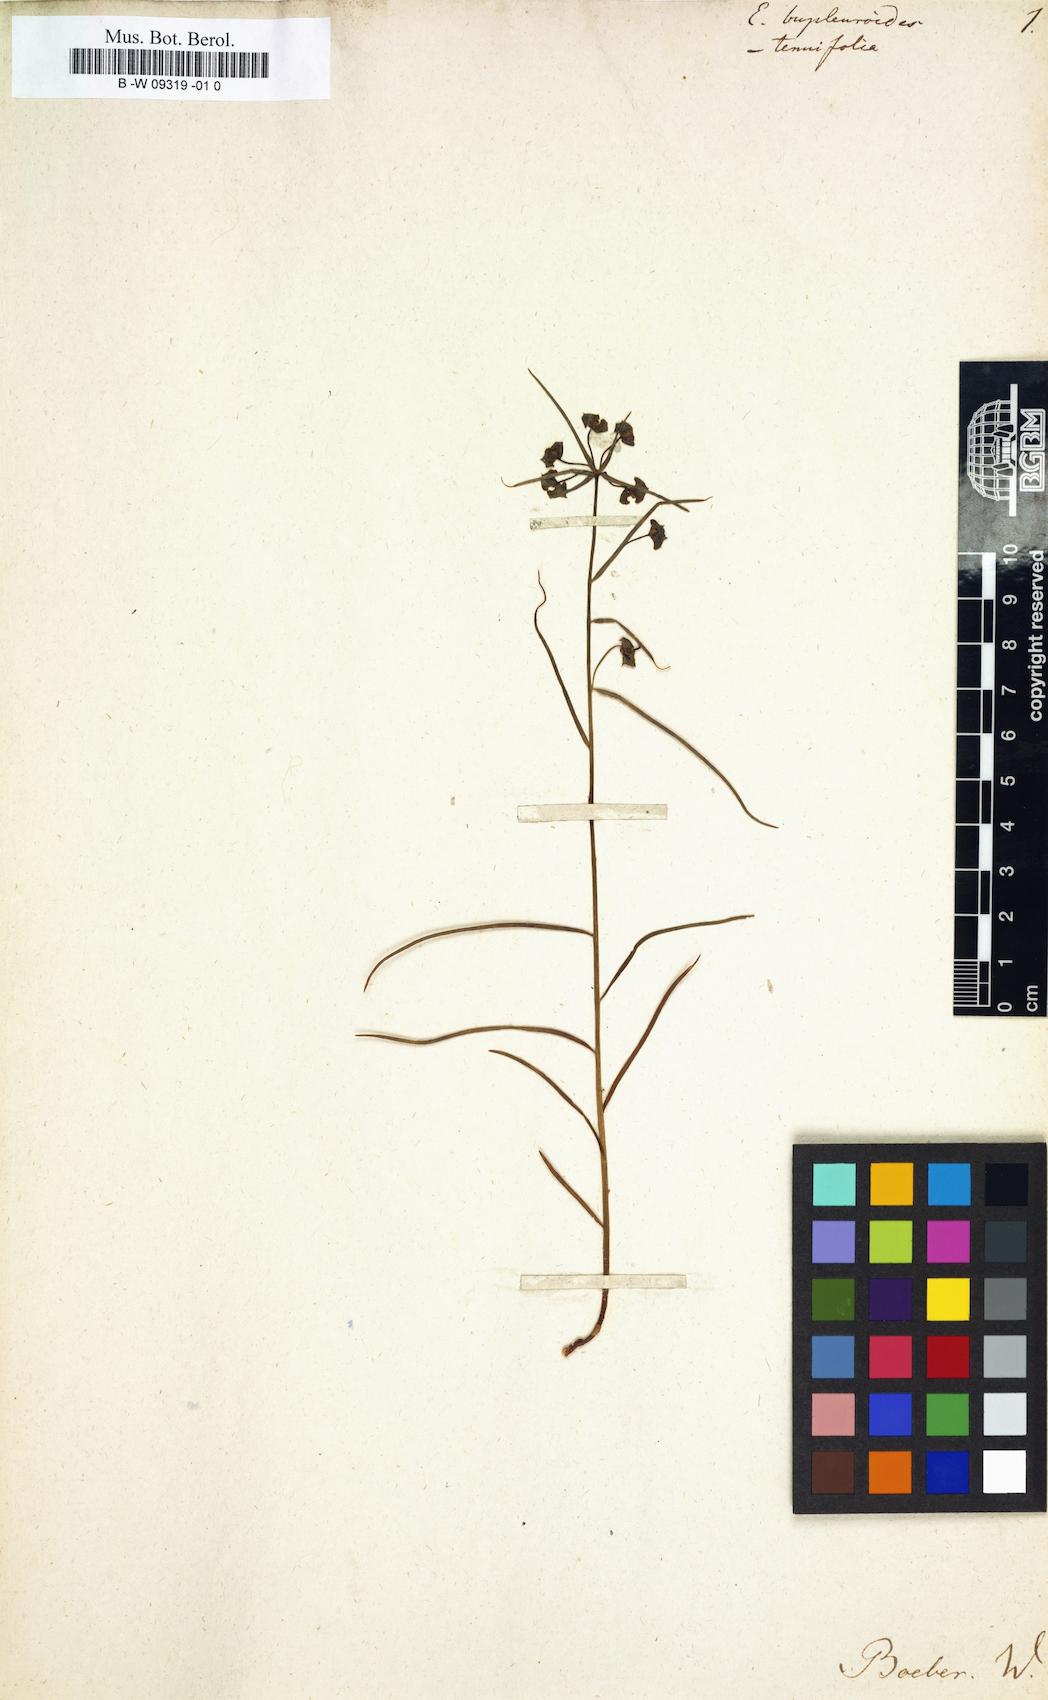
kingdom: Plantae
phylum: Tracheophyta
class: Magnoliopsida
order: Malpighiales
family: Euphorbiaceae
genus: Euphorbia
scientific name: Euphorbia bupleuroides
